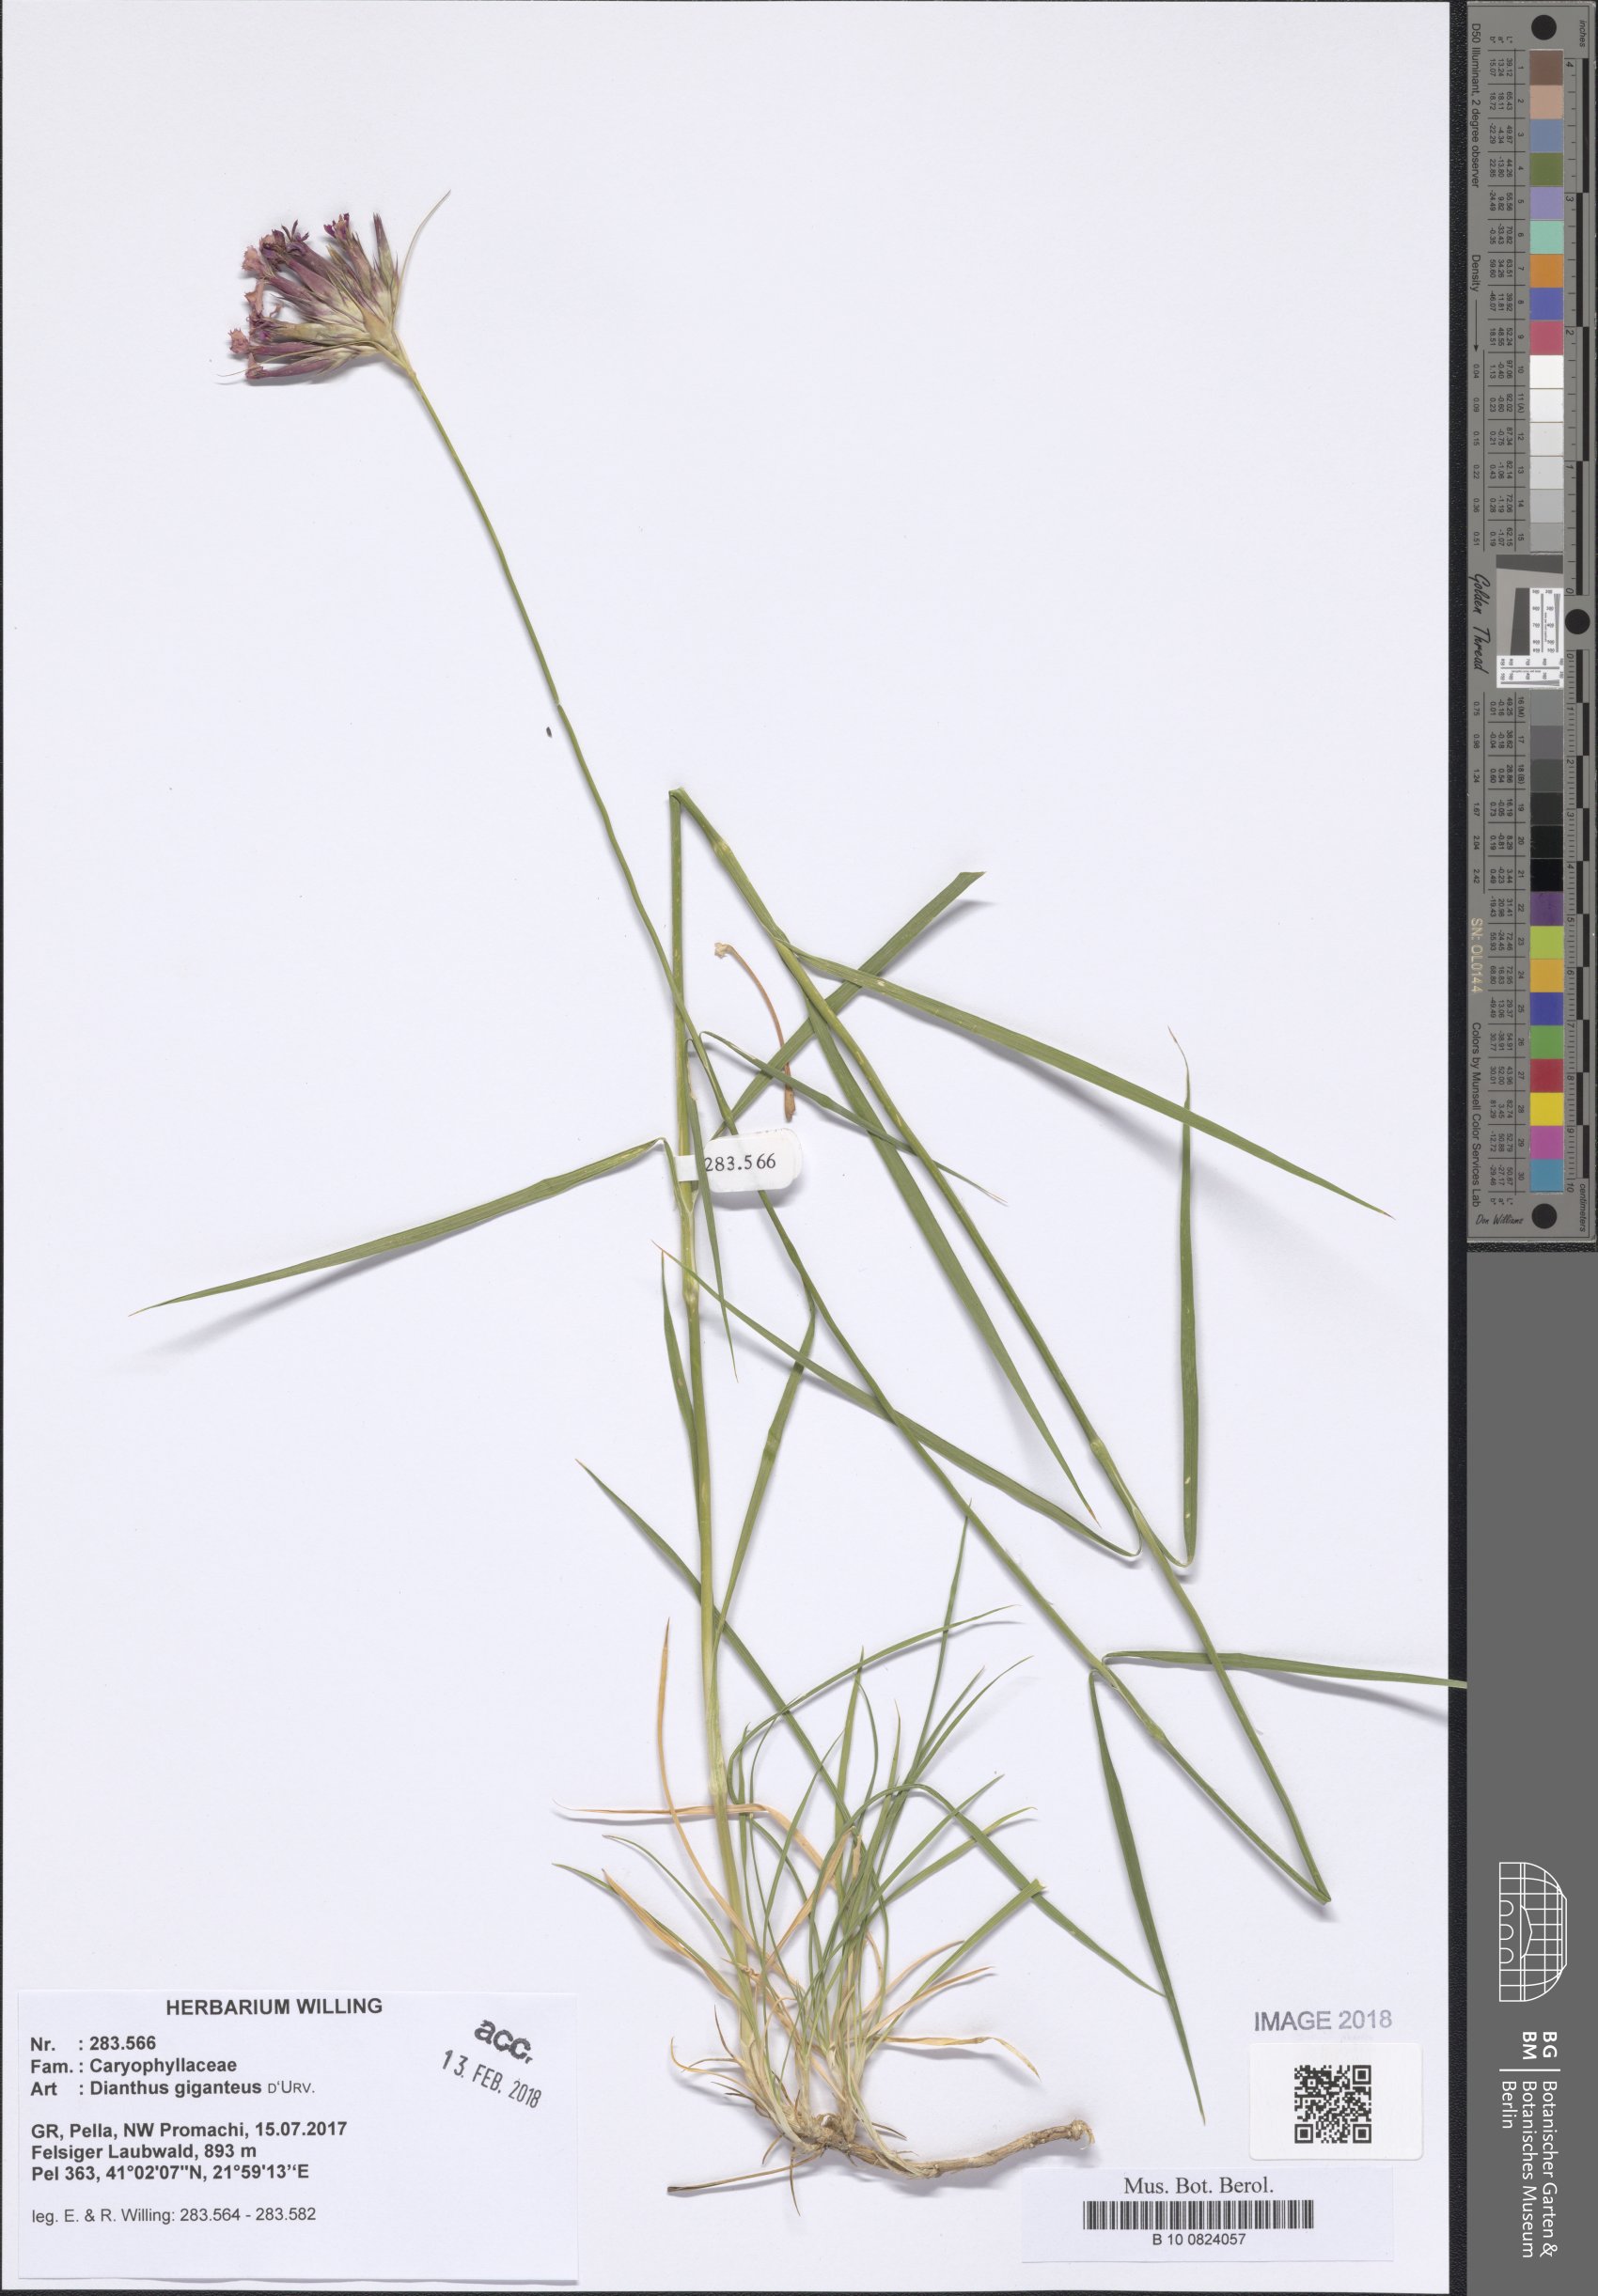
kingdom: Plantae
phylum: Tracheophyta
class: Magnoliopsida
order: Caryophyllales
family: Caryophyllaceae
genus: Dianthus
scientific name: Dianthus giganteus
